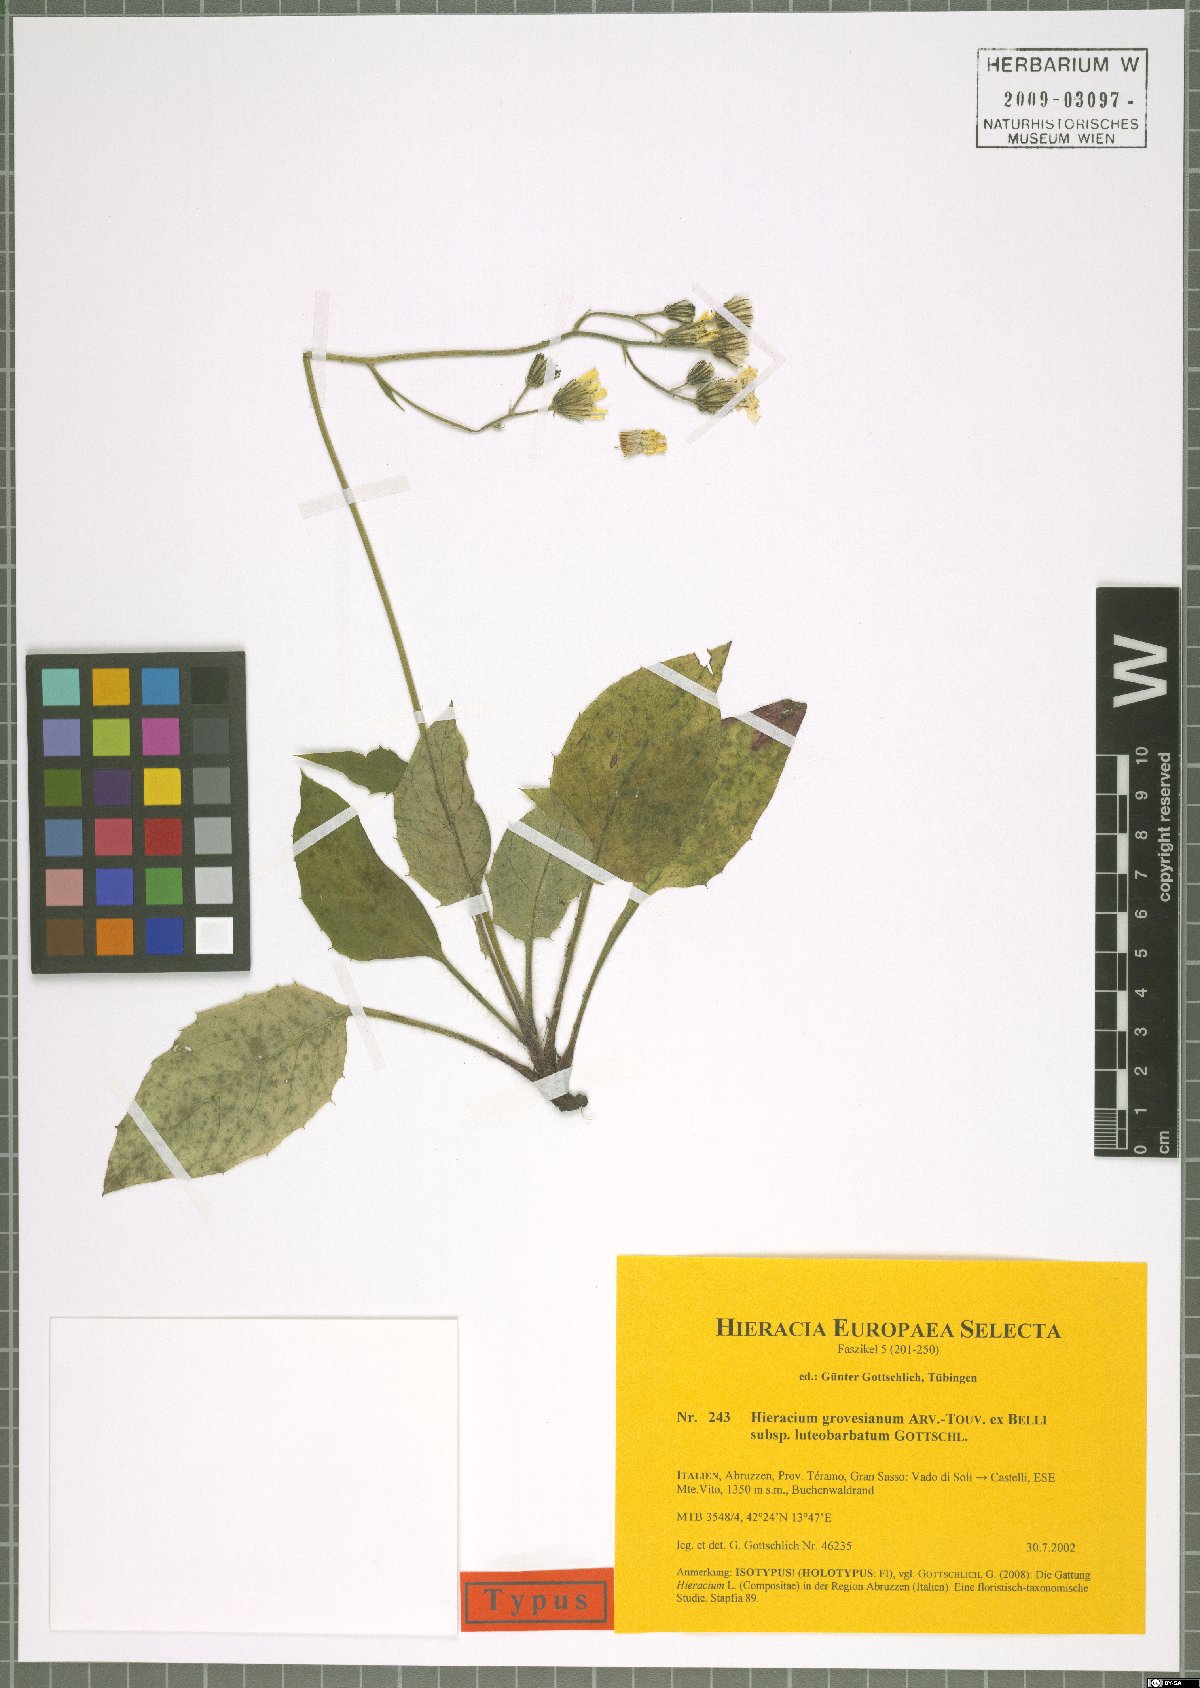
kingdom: Plantae
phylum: Tracheophyta
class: Magnoliopsida
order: Asterales
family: Asteraceae
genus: Hieracium
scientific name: Hieracium grovesianum
